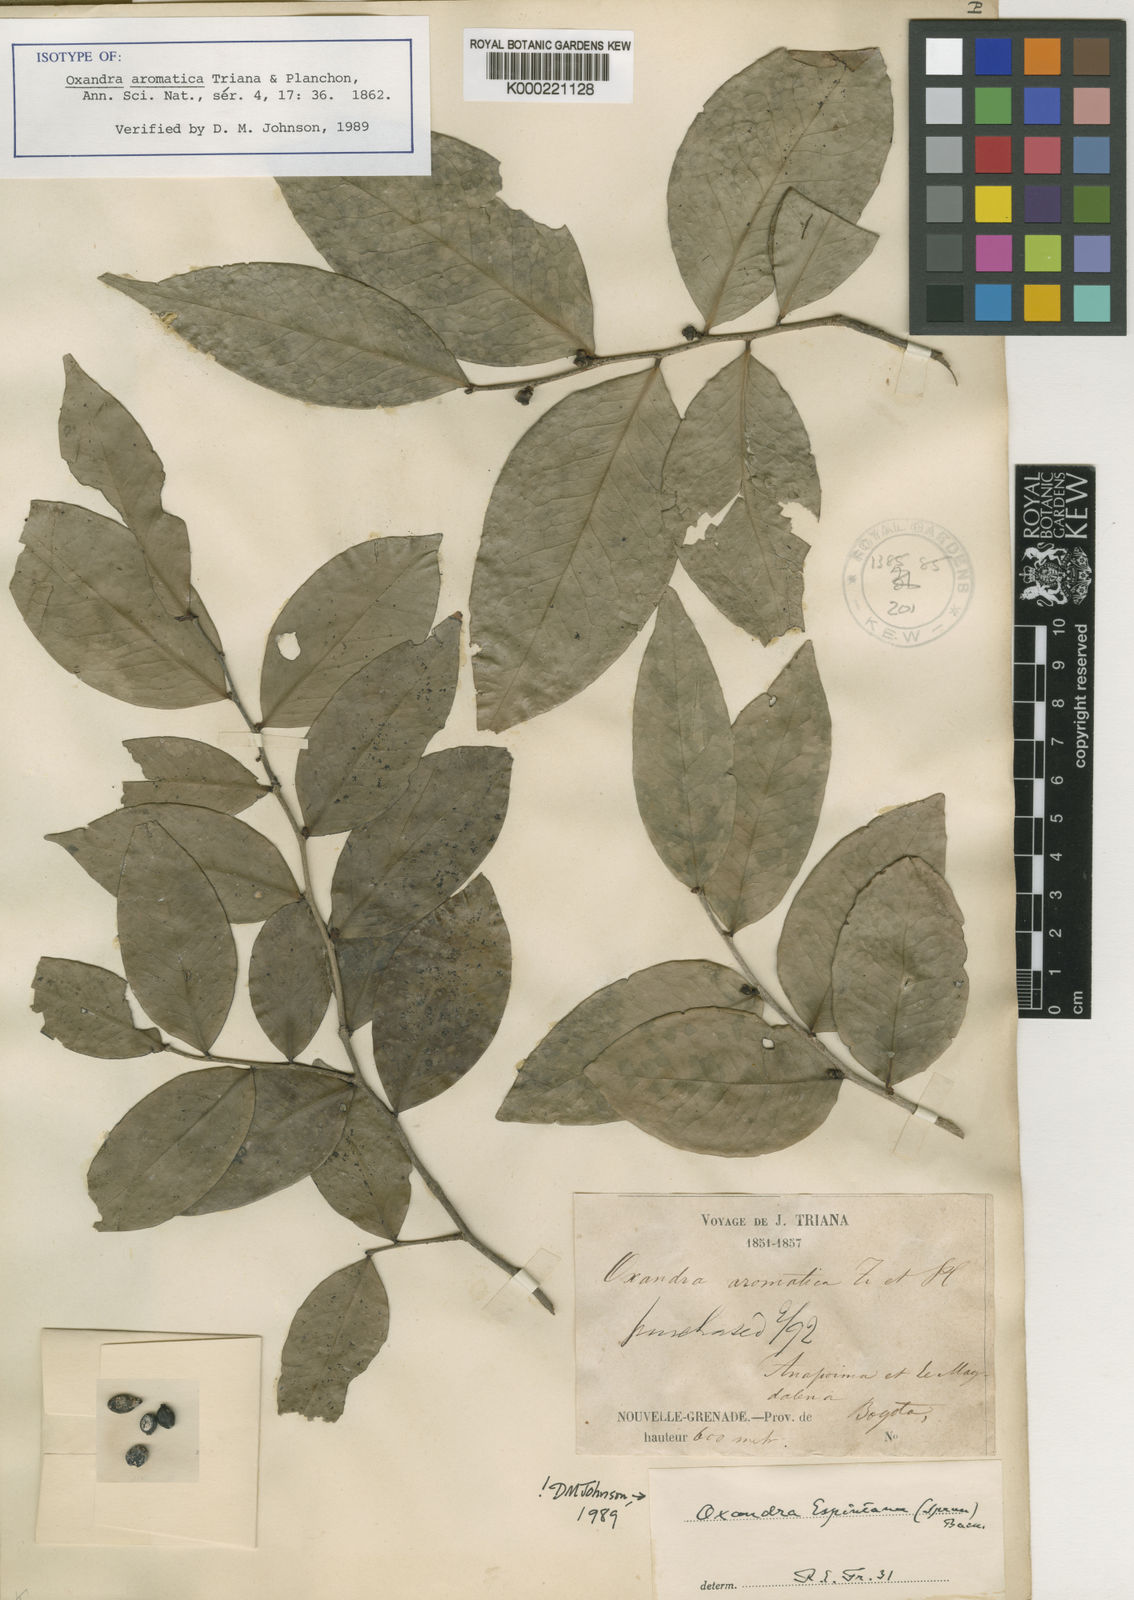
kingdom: Plantae
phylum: Tracheophyta
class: Magnoliopsida
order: Magnoliales
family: Annonaceae
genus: Oxandra
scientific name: Oxandra espintana
